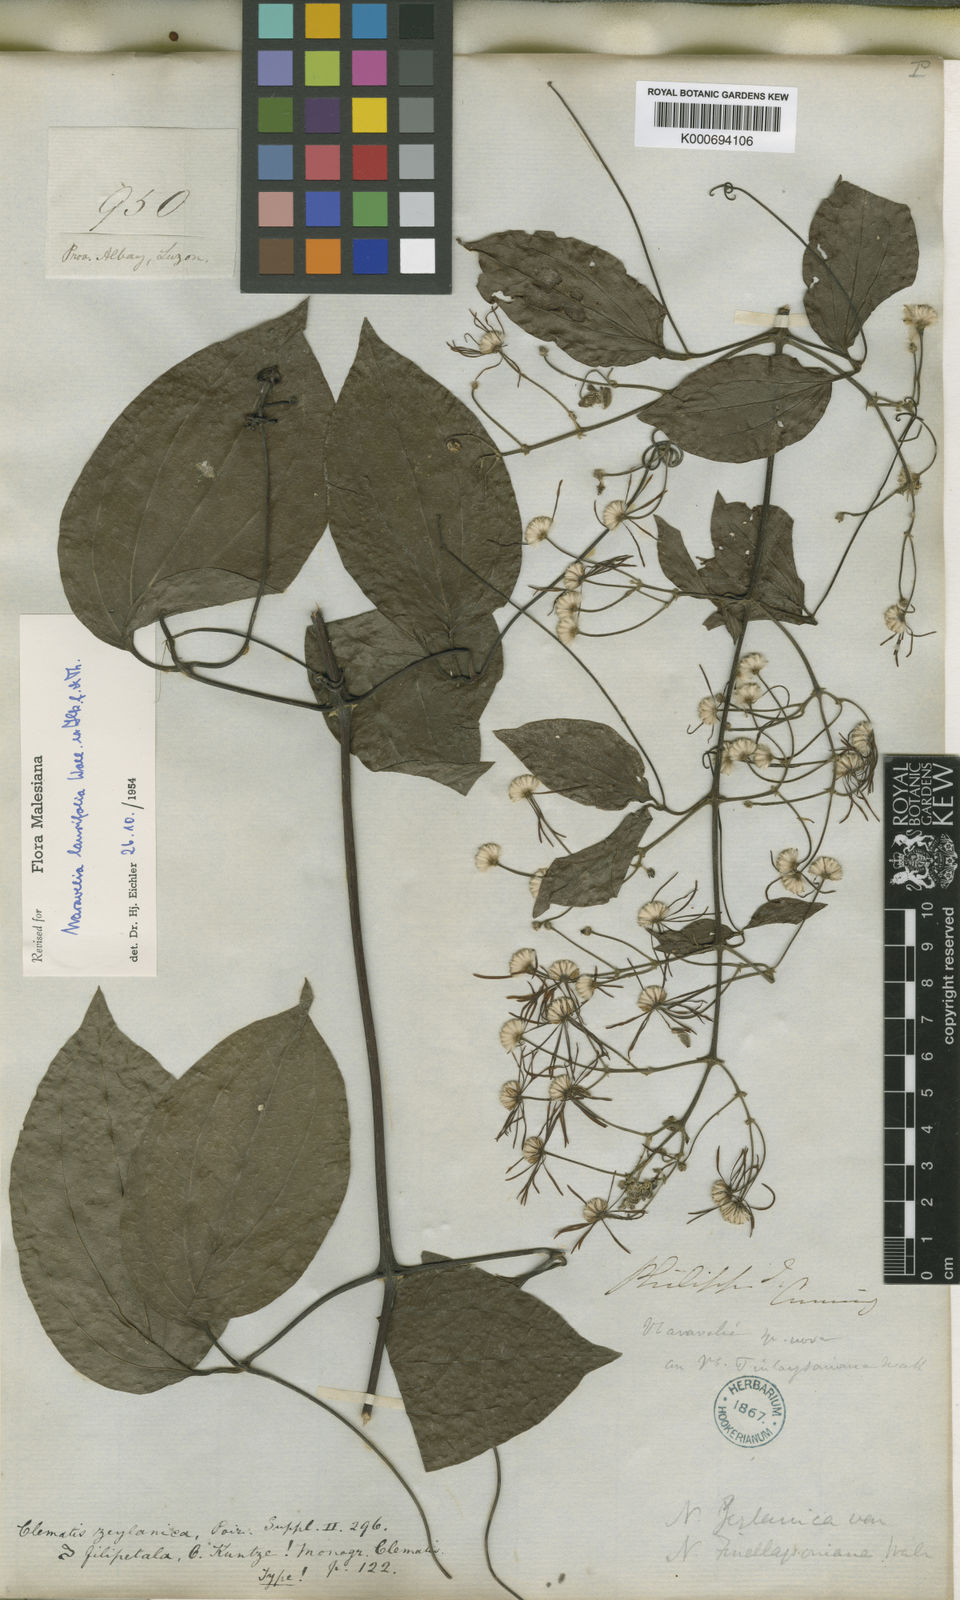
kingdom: Plantae
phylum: Tracheophyta
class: Magnoliopsida
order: Ranunculales
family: Ranunculaceae
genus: Clematis
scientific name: Clematis horripilata
